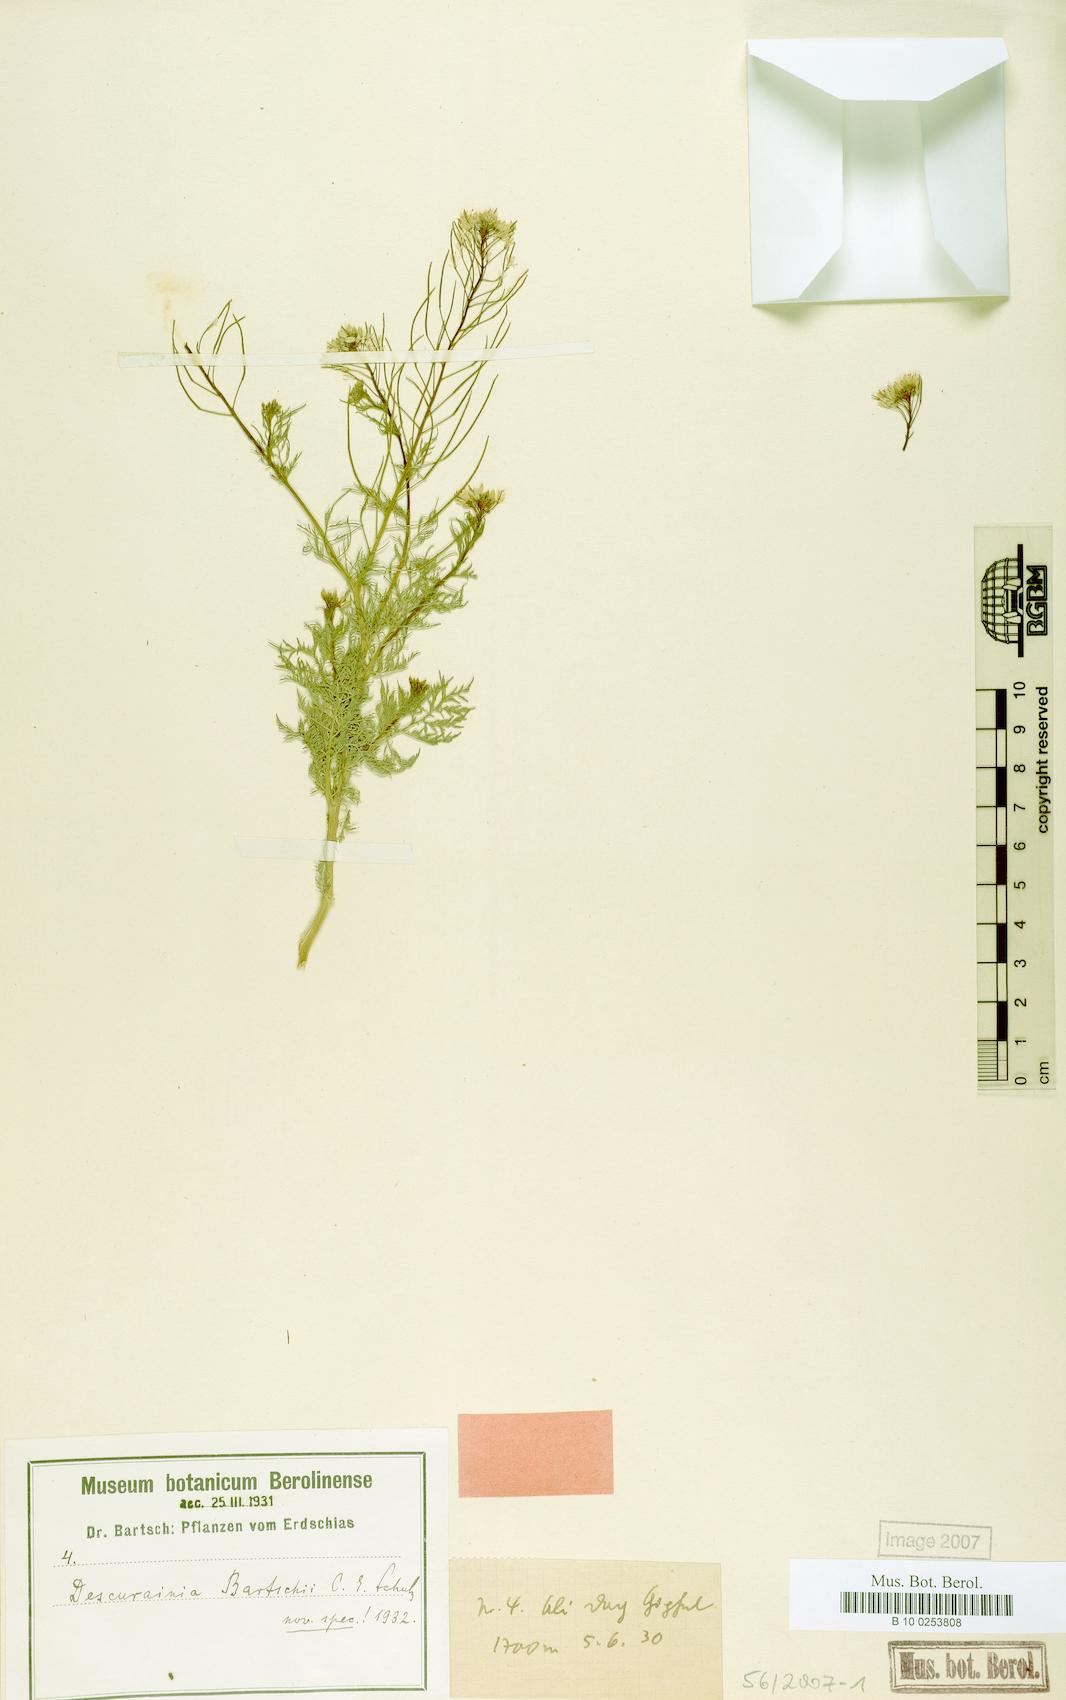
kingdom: Plantae
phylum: Tracheophyta
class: Magnoliopsida
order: Brassicales
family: Brassicaceae
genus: Descurainia
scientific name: Descurainia bartschii
